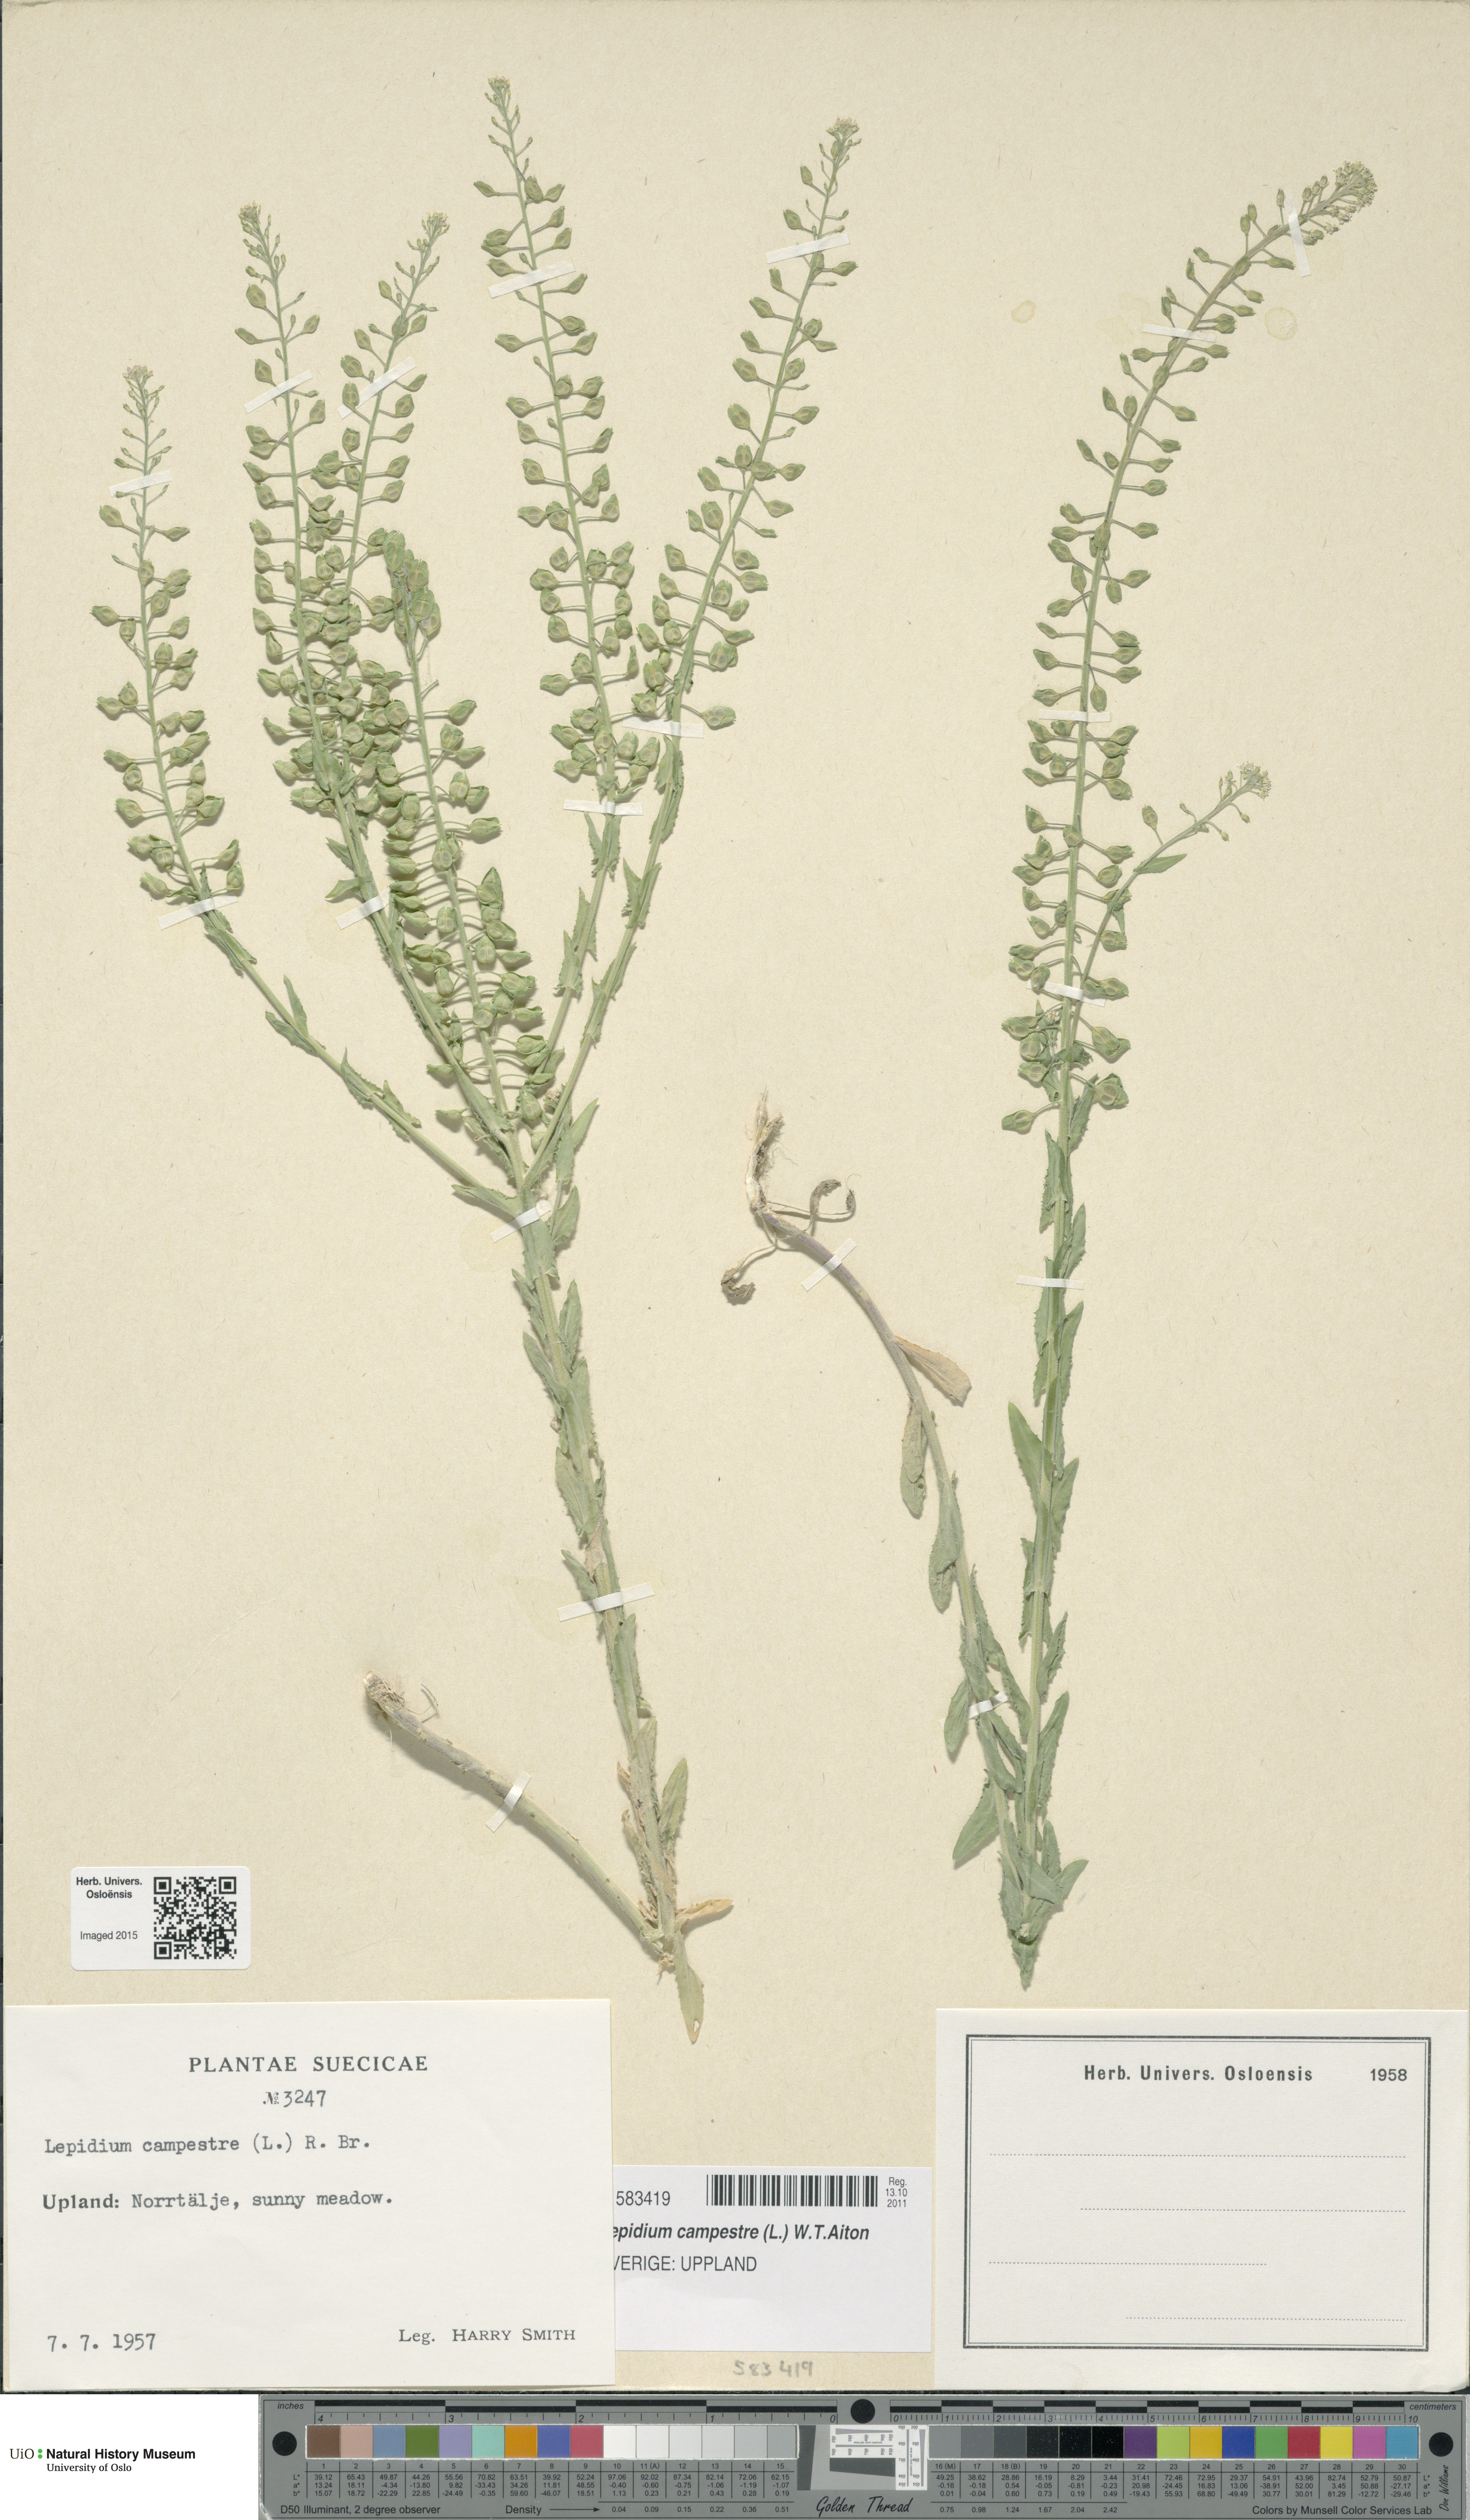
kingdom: Plantae
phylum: Tracheophyta
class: Magnoliopsida
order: Brassicales
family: Brassicaceae
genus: Lepidium
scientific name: Lepidium campestre
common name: Field pepperwort
